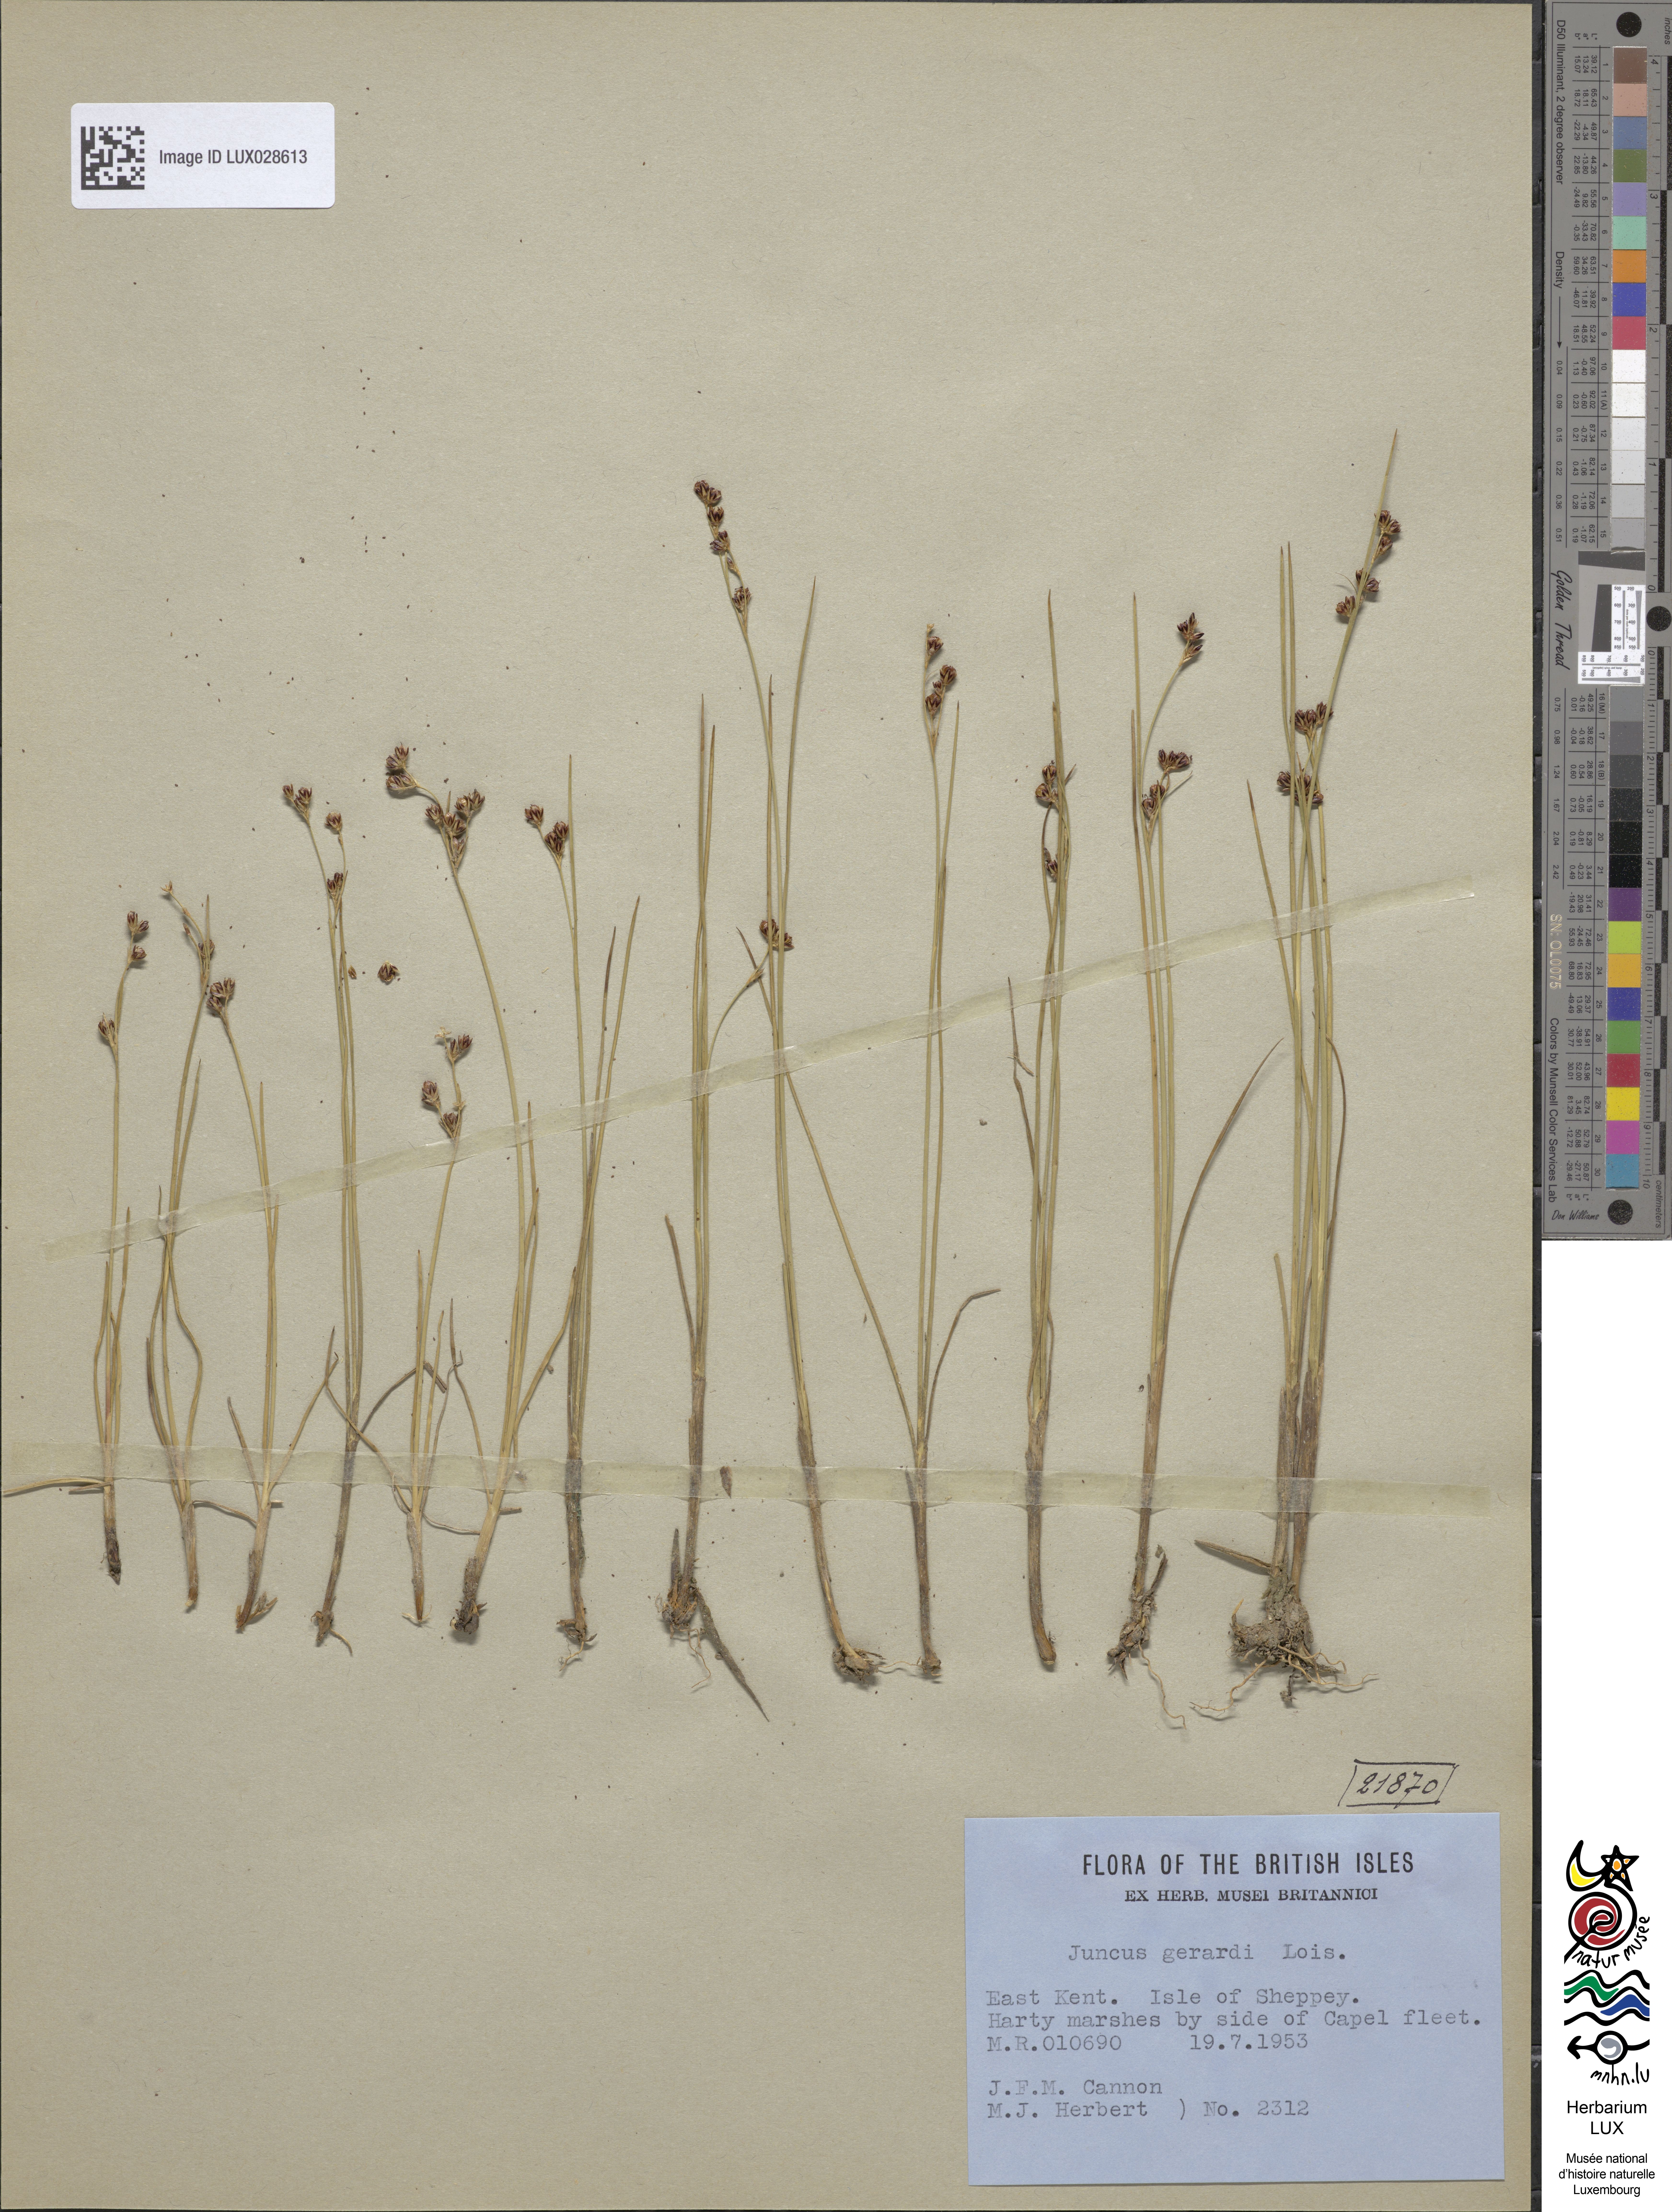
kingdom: Plantae
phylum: Tracheophyta
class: Liliopsida
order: Poales
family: Juncaceae
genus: Juncus
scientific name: Juncus gerardi
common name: Saltmarsh rush
